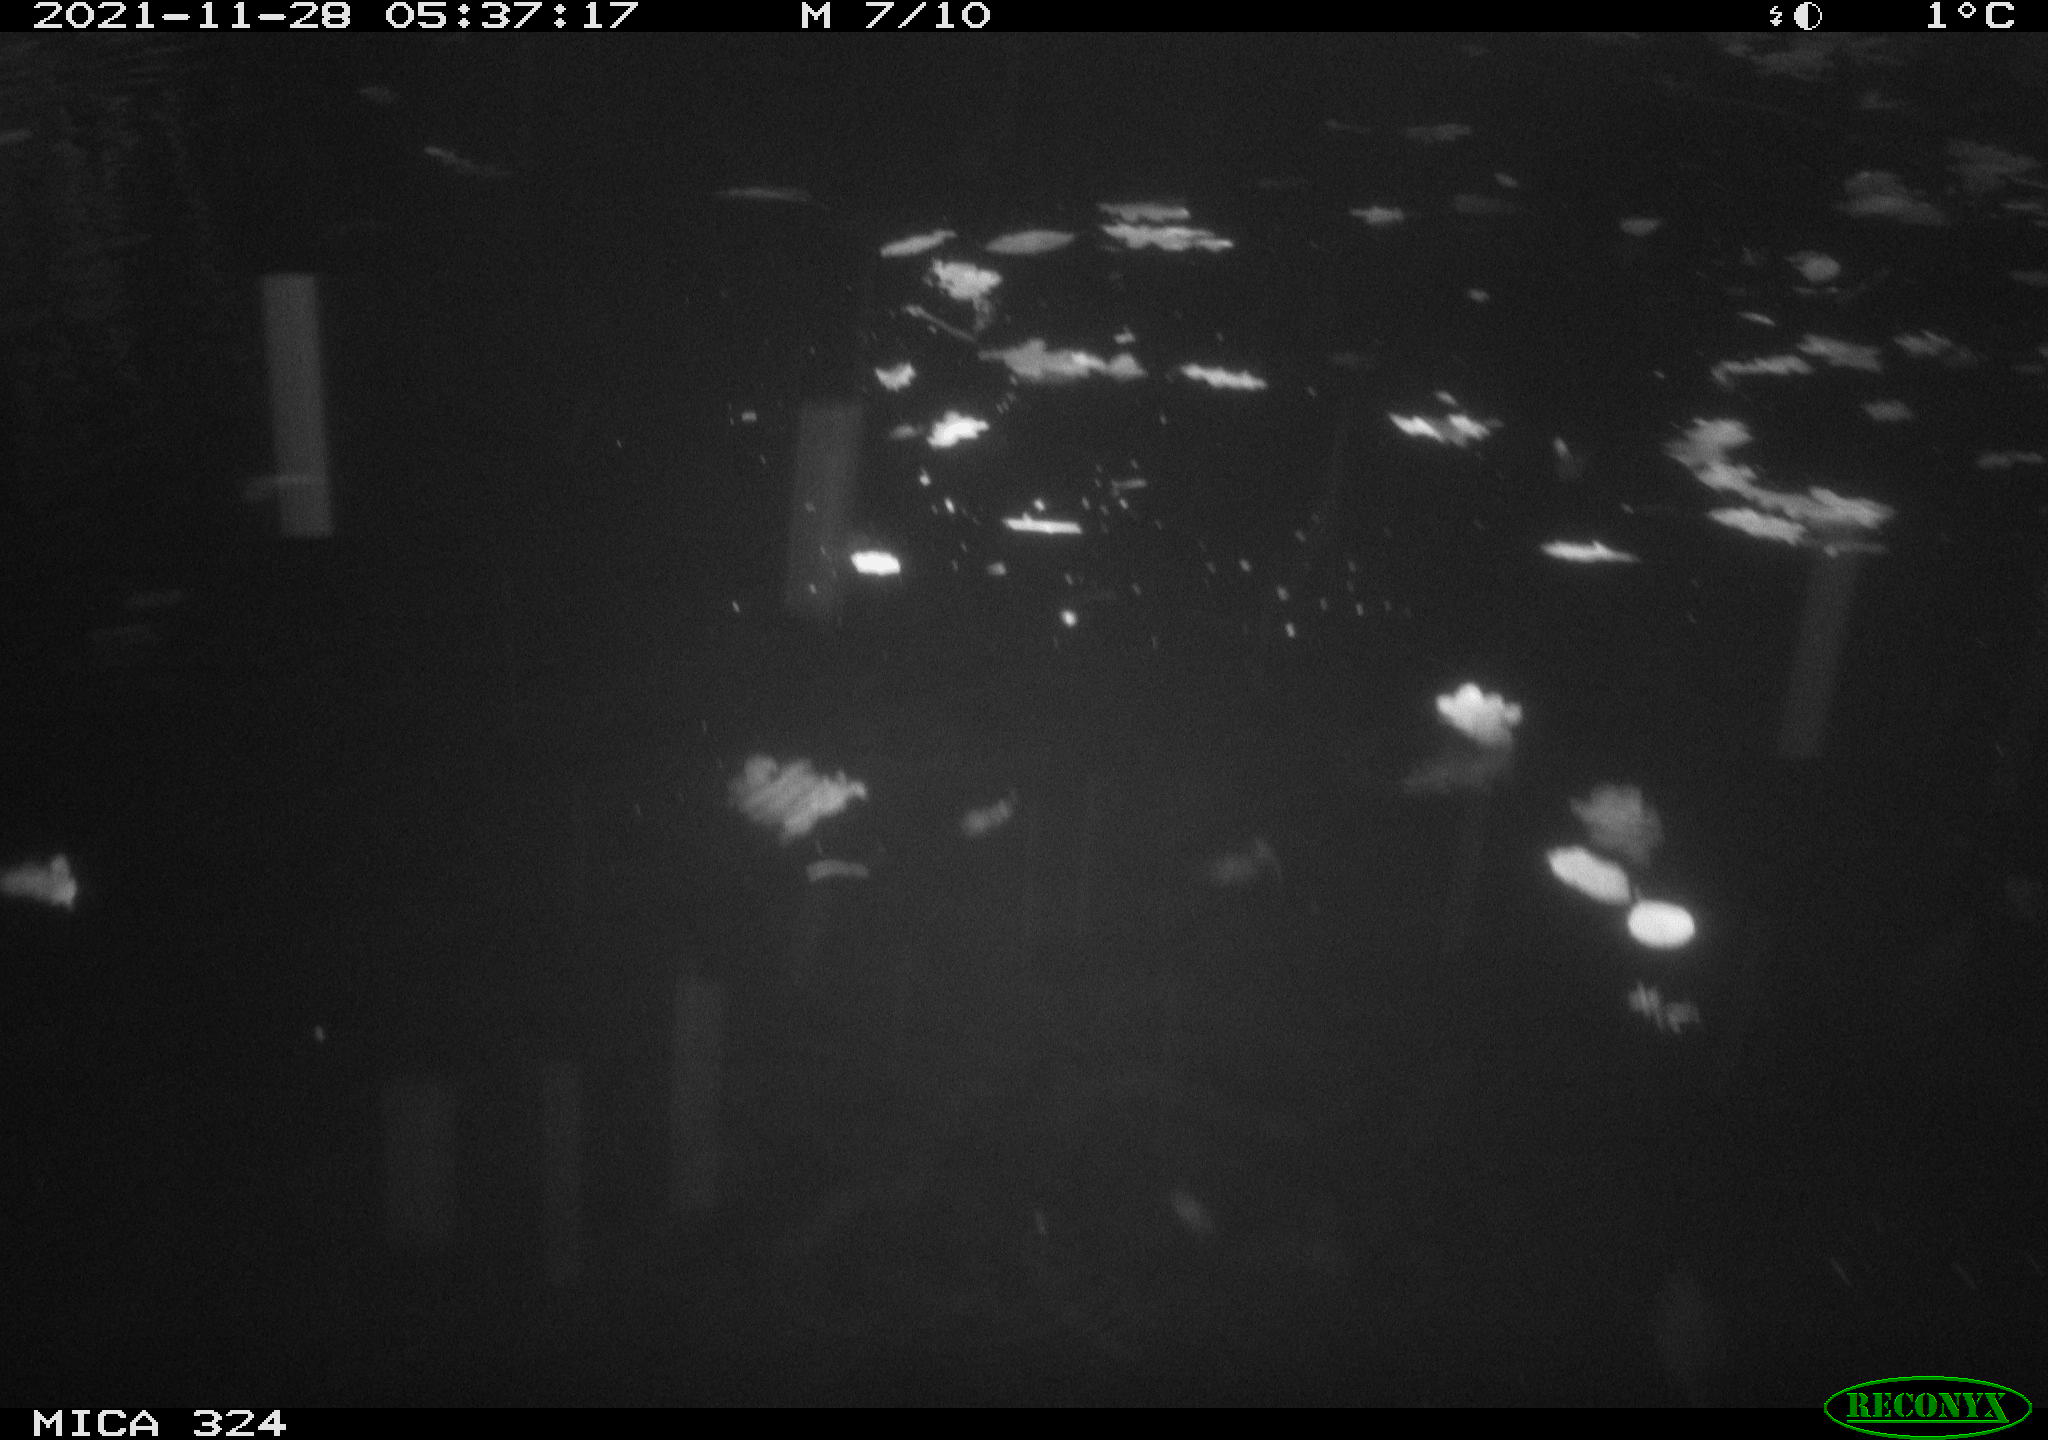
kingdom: Animalia
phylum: Chordata
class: Mammalia
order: Rodentia
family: Cricetidae
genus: Ondatra
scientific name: Ondatra zibethicus
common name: Muskrat
